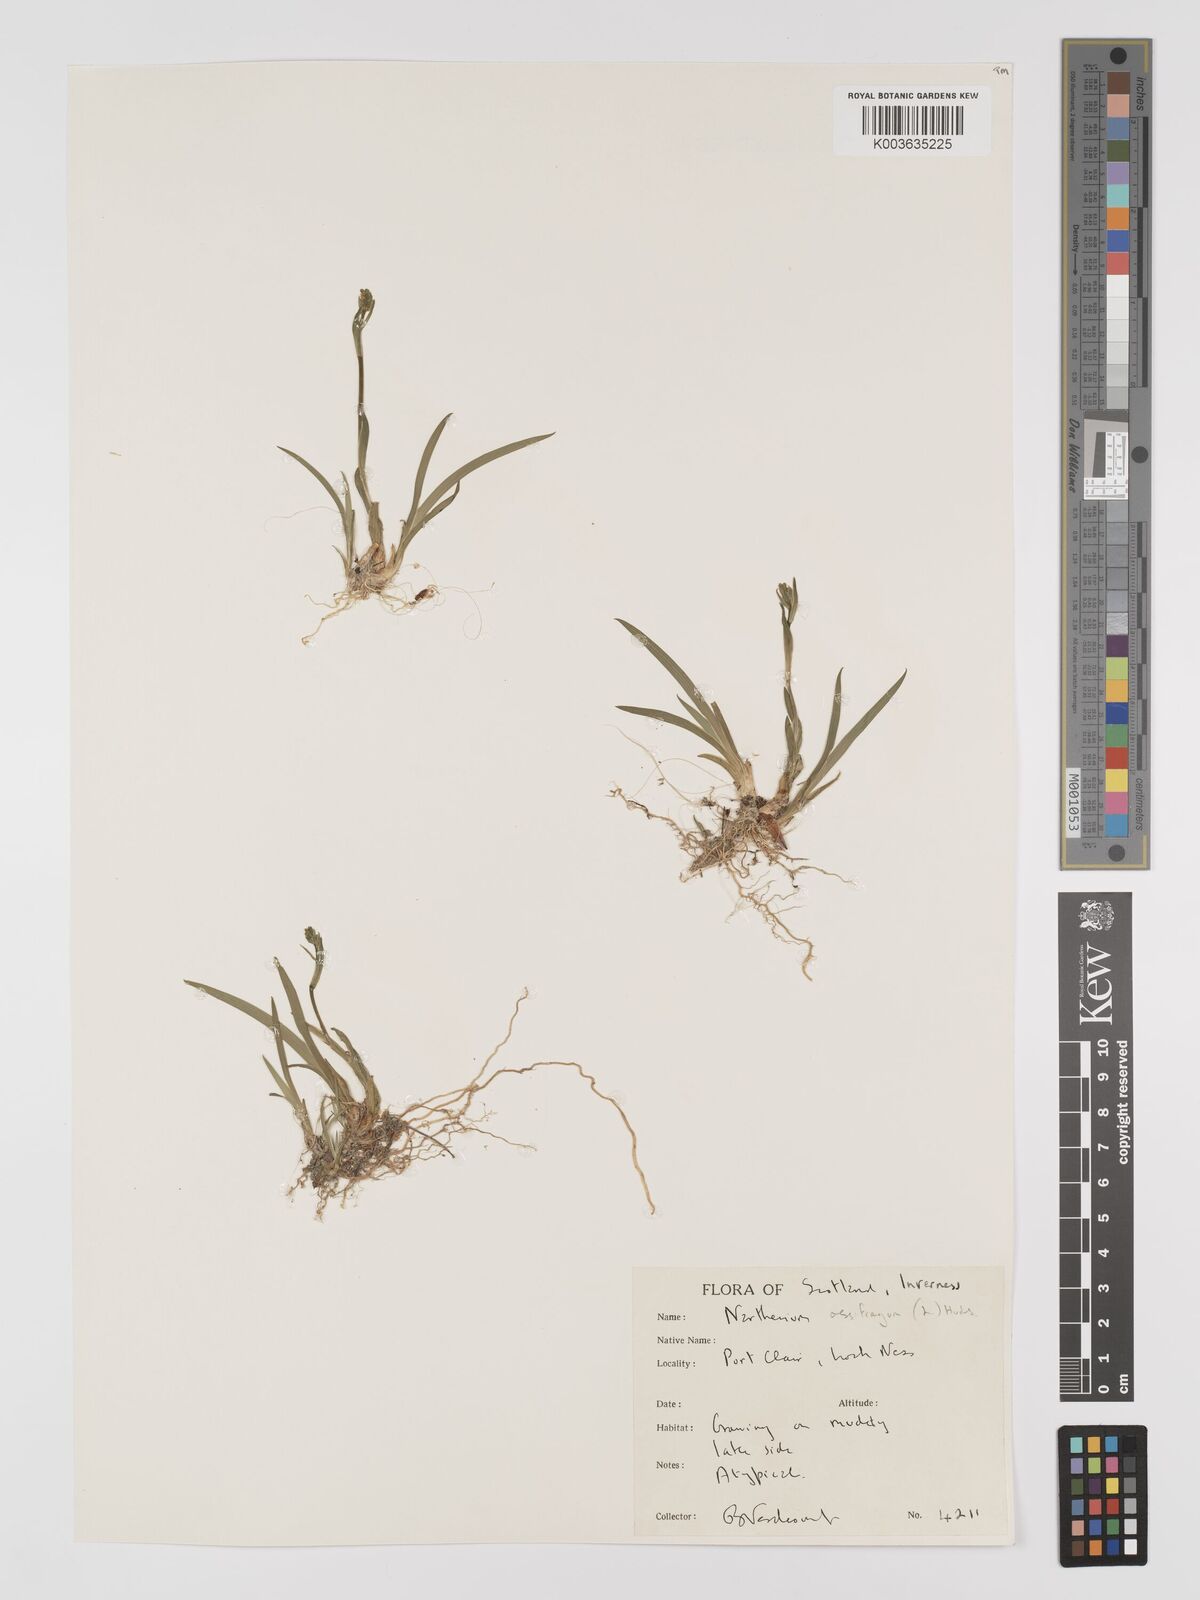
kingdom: Plantae
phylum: Tracheophyta
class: Liliopsida
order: Dioscoreales
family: Nartheciaceae
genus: Narthecium
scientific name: Narthecium ossifragum
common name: Bog asphodel
